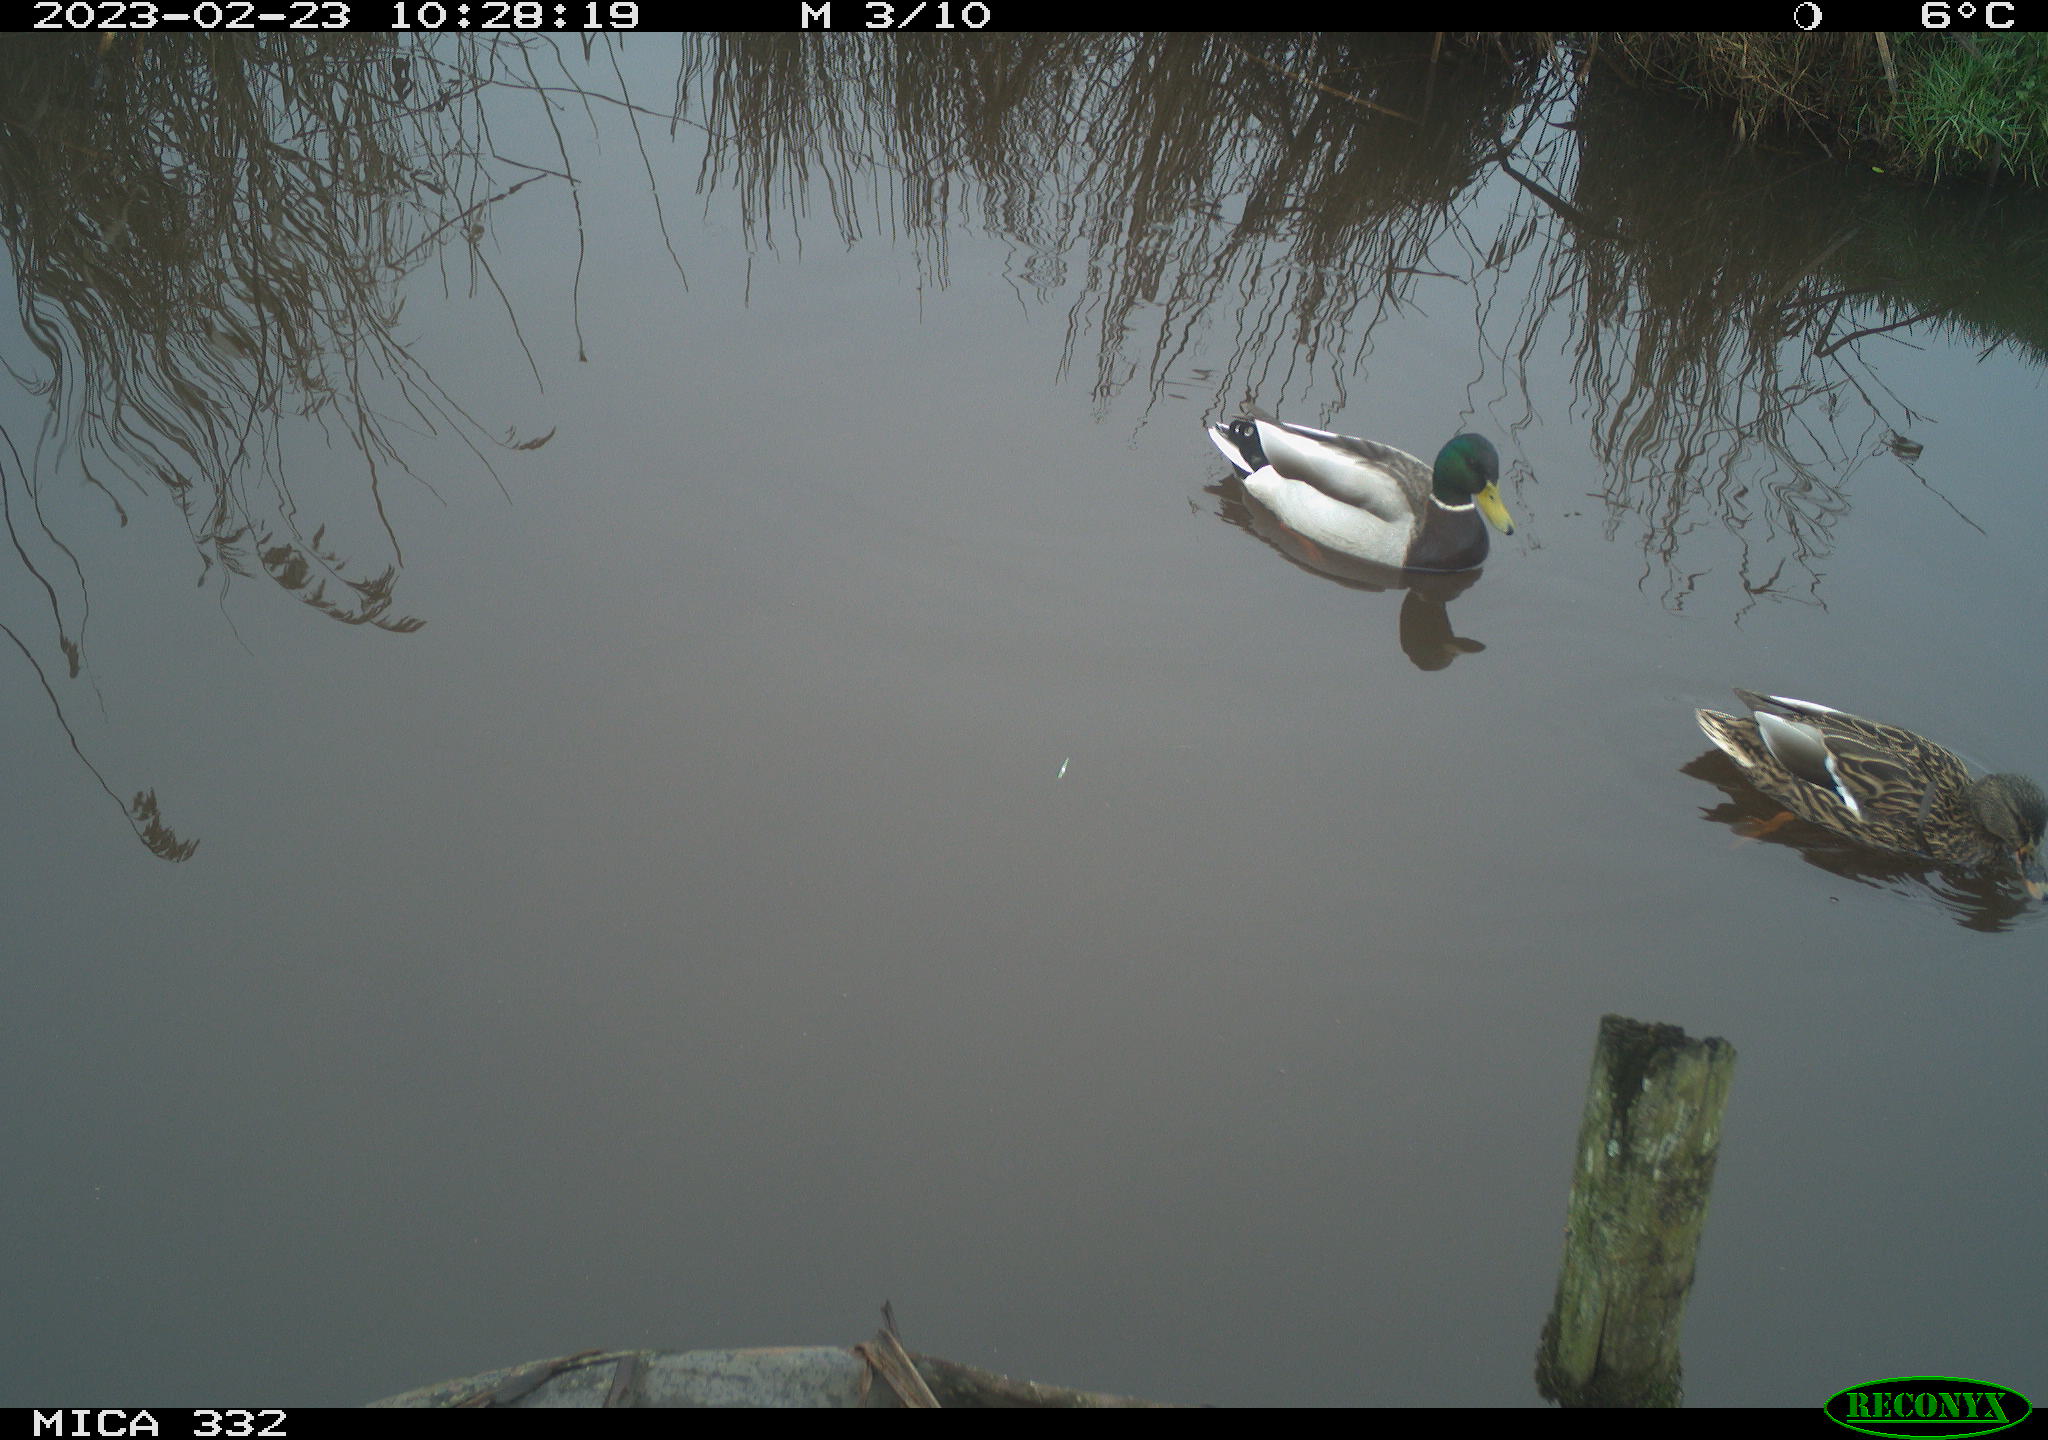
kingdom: Animalia
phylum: Chordata
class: Aves
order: Anseriformes
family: Anatidae
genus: Anas
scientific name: Anas
